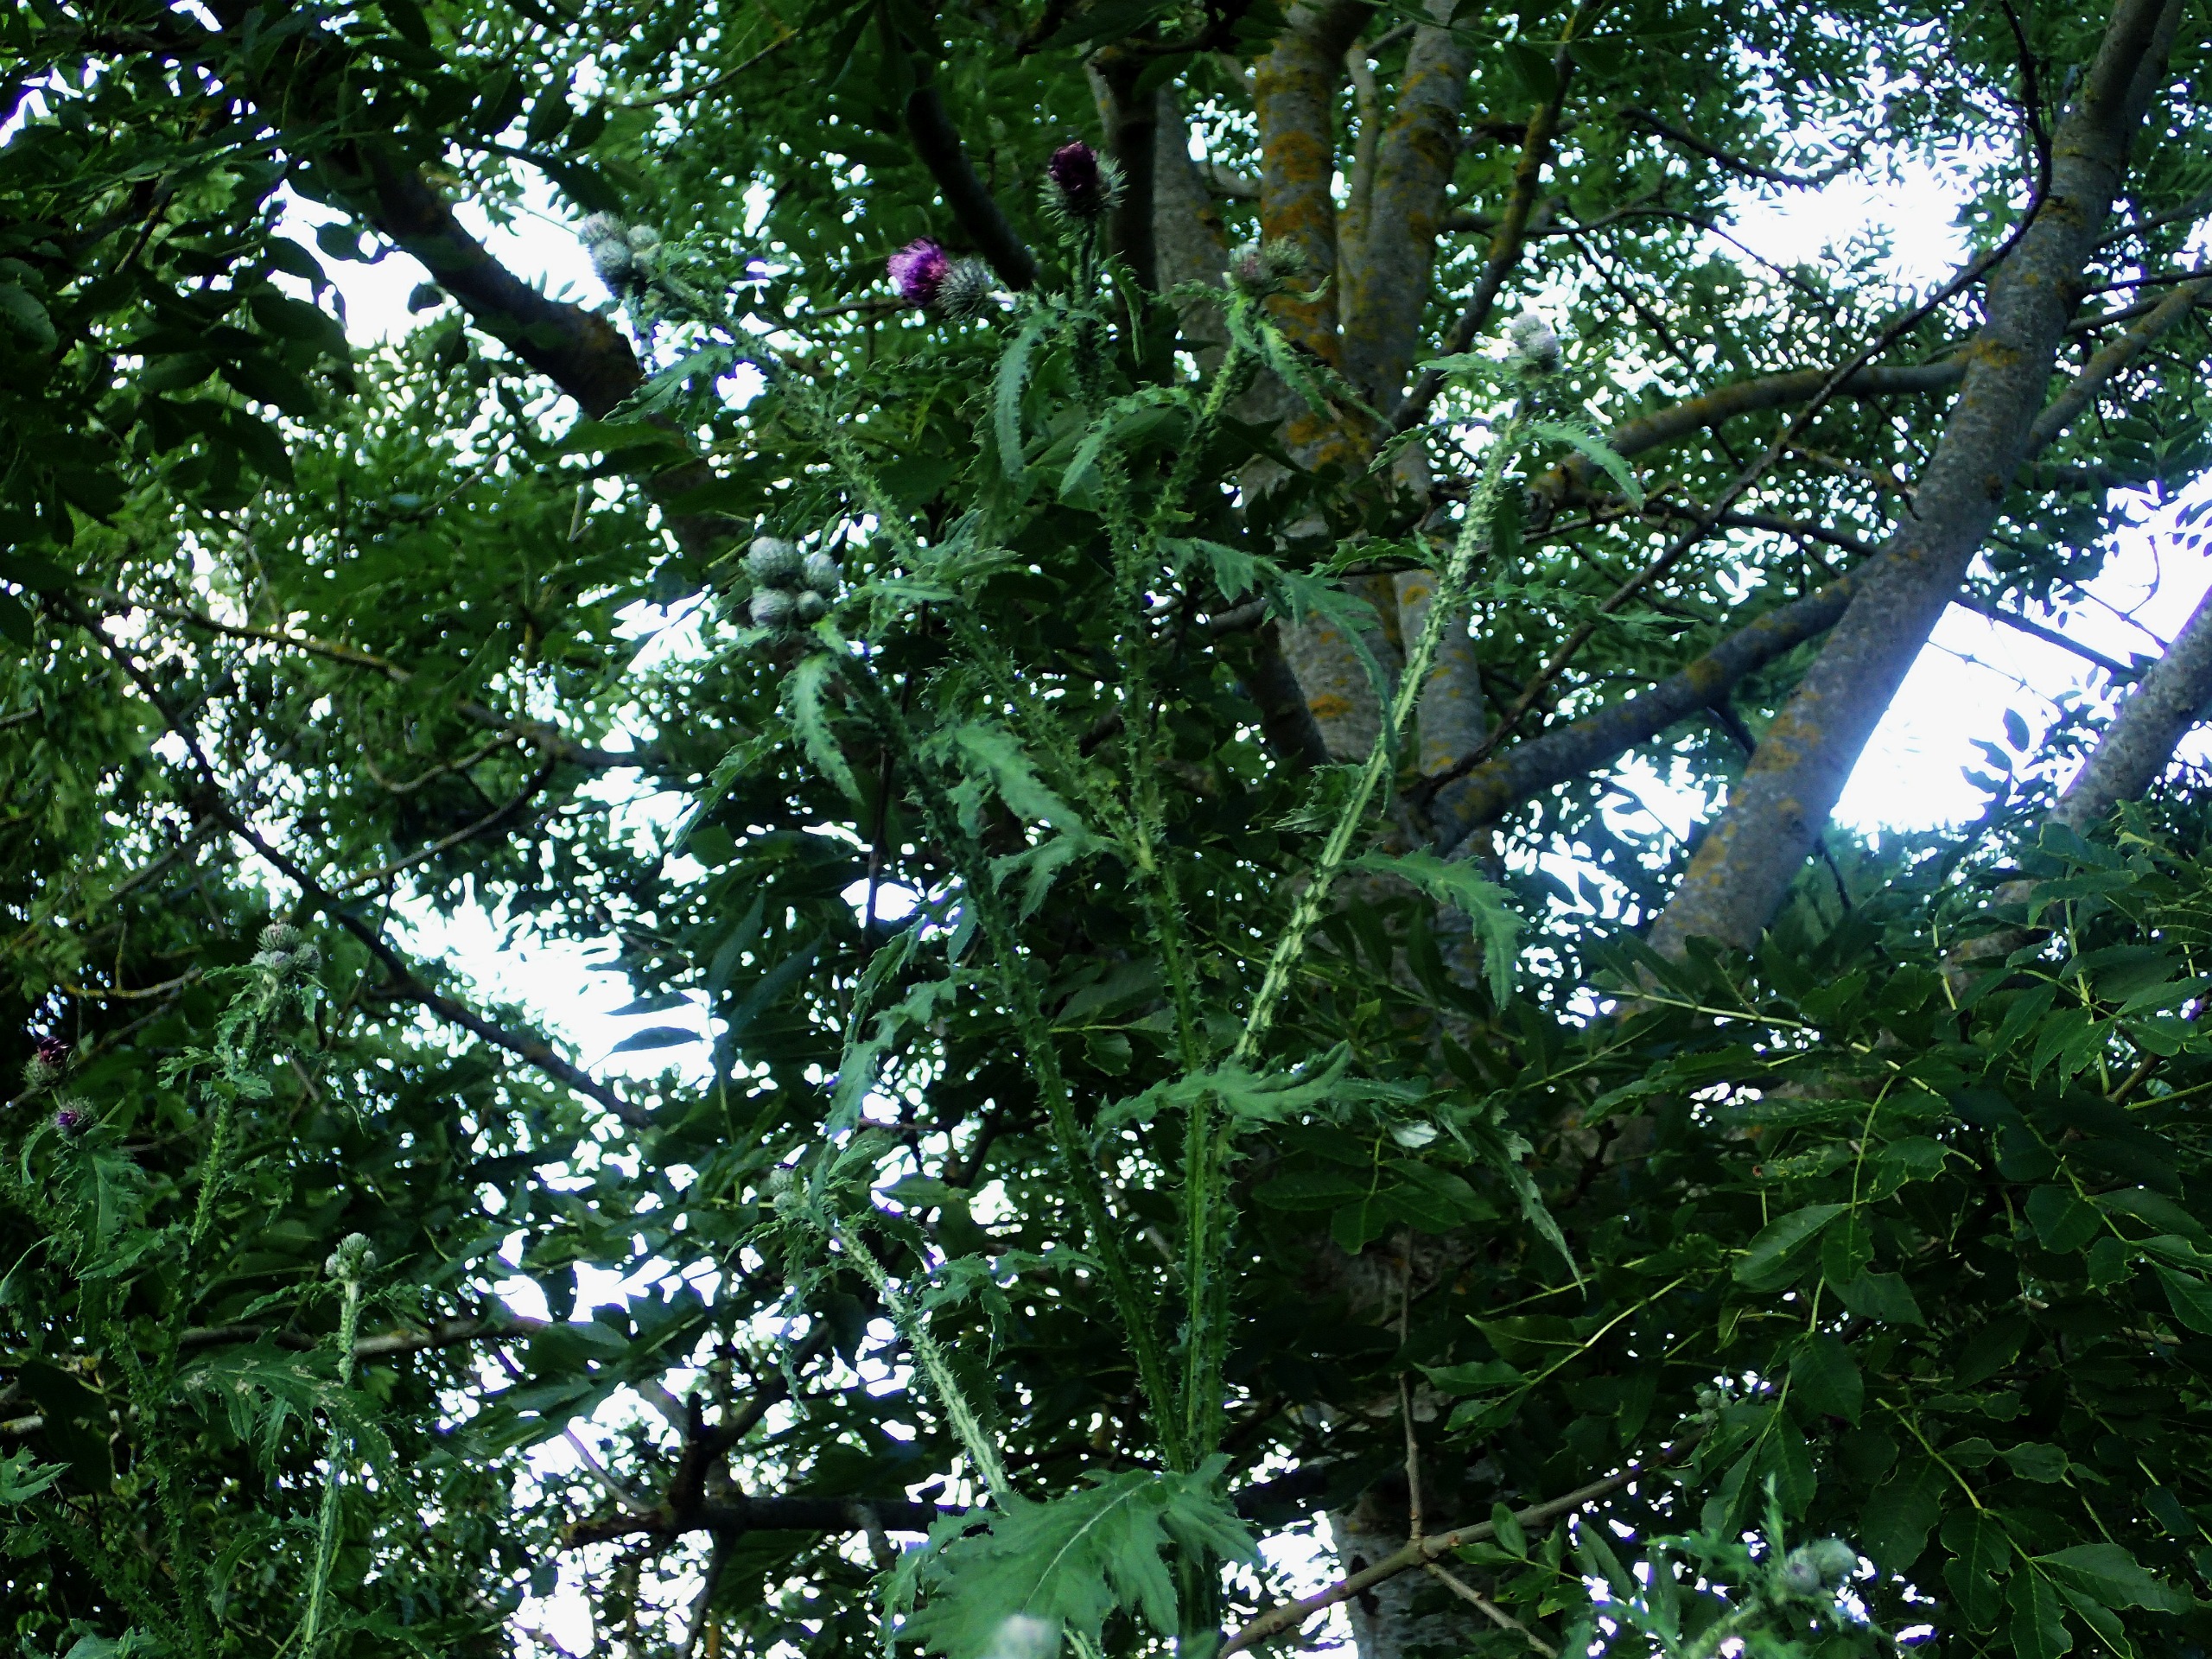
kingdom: Plantae
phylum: Tracheophyta
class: Magnoliopsida
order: Asterales
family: Asteraceae
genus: Carduus
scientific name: Carduus crispus
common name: Kruset tidsel
